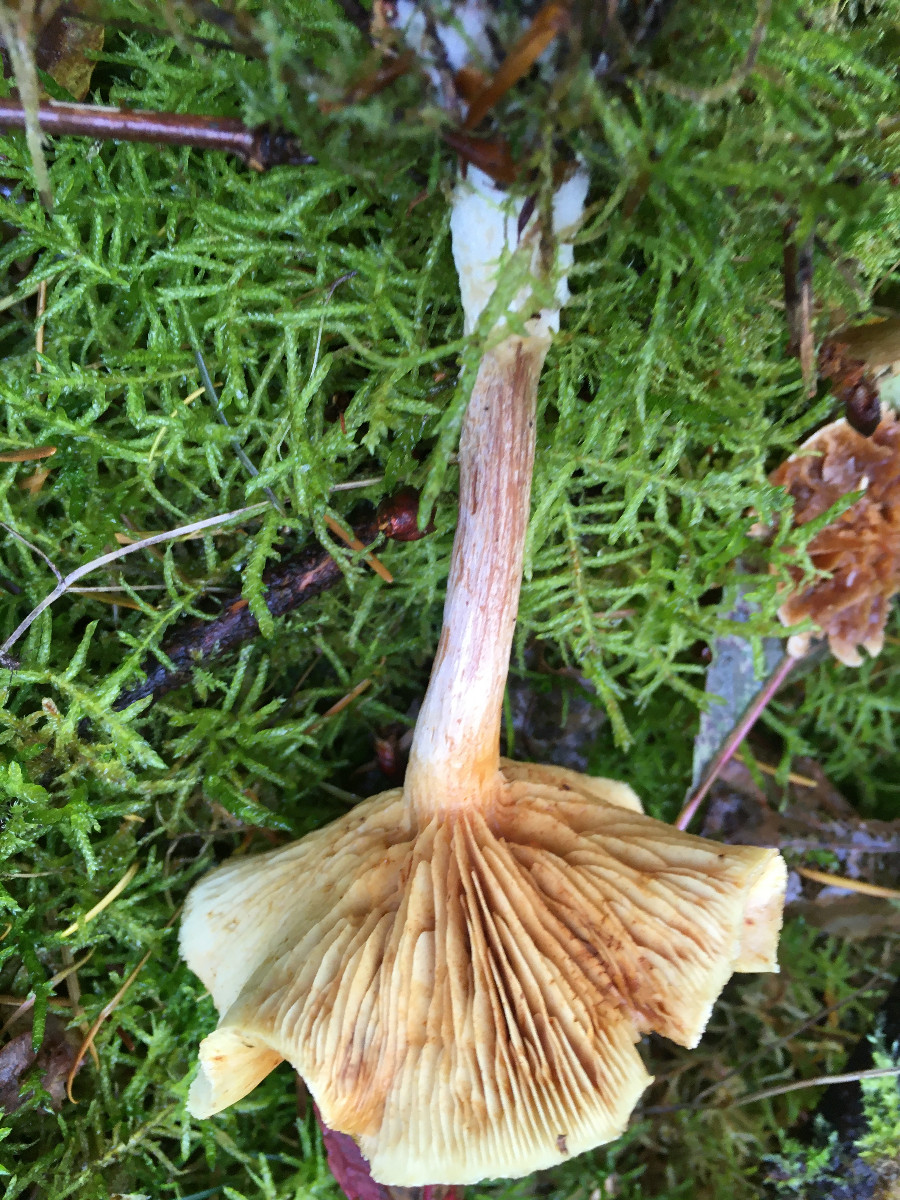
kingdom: Fungi
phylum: Basidiomycota
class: Agaricomycetes
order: Agaricales
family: Hymenogastraceae
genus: Gymnopilus
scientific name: Gymnopilus penetrans
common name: plettet flammehat
